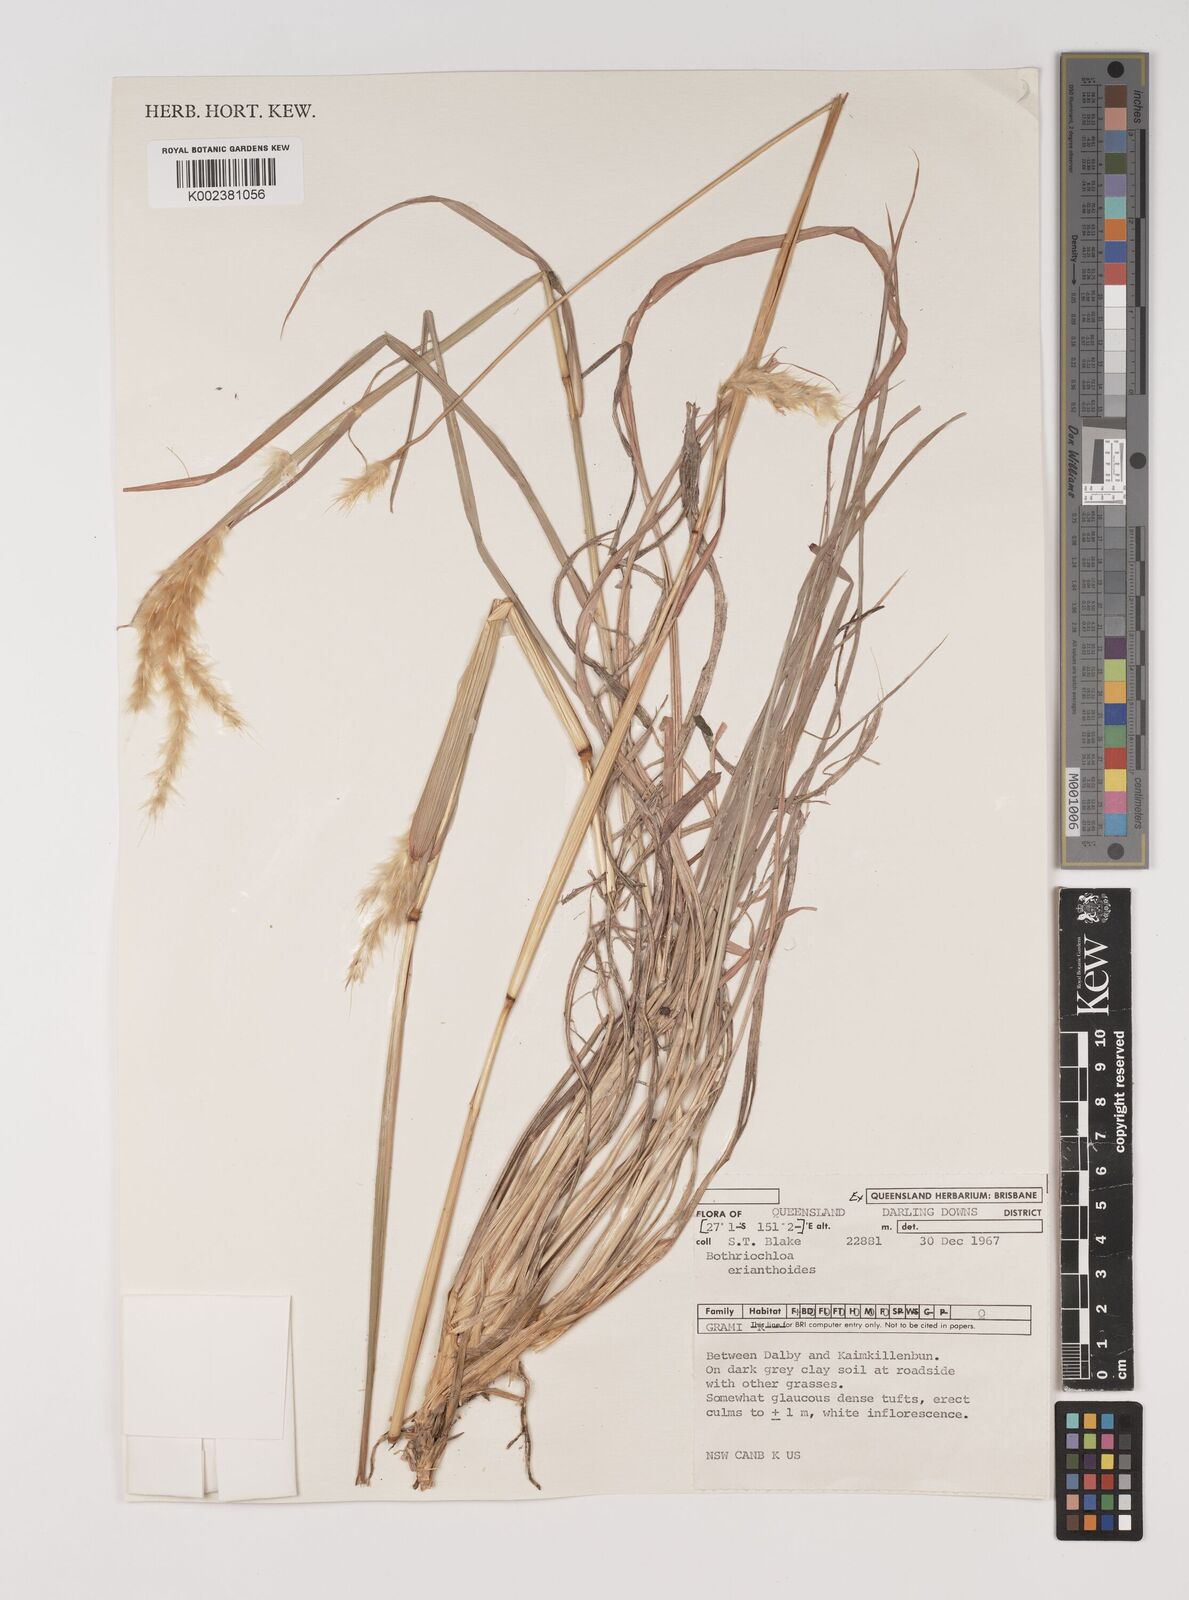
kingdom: Plantae
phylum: Tracheophyta
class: Liliopsida
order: Poales
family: Poaceae
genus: Bothriochloa
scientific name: Bothriochloa erianthoides
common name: Satin-top grass
